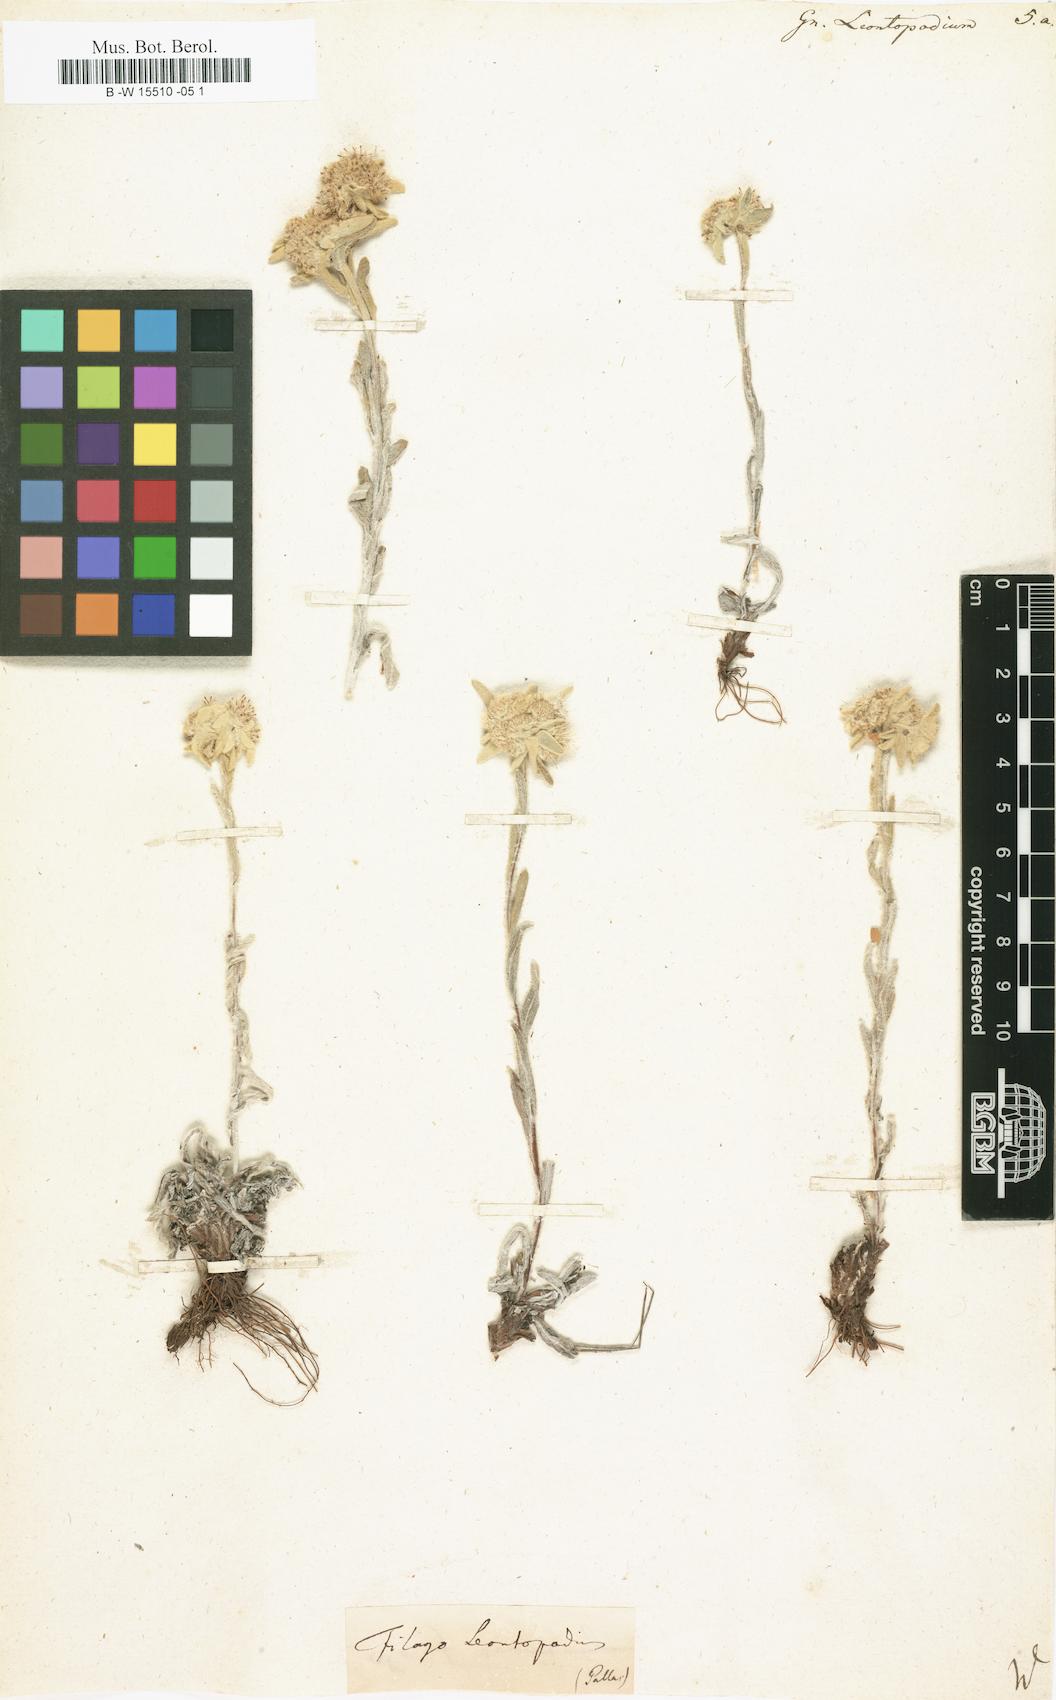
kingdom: Plantae
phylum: Tracheophyta
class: Magnoliopsida
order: Asterales
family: Asteraceae
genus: Gnaphalium
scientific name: Gnaphalium leontopodium
